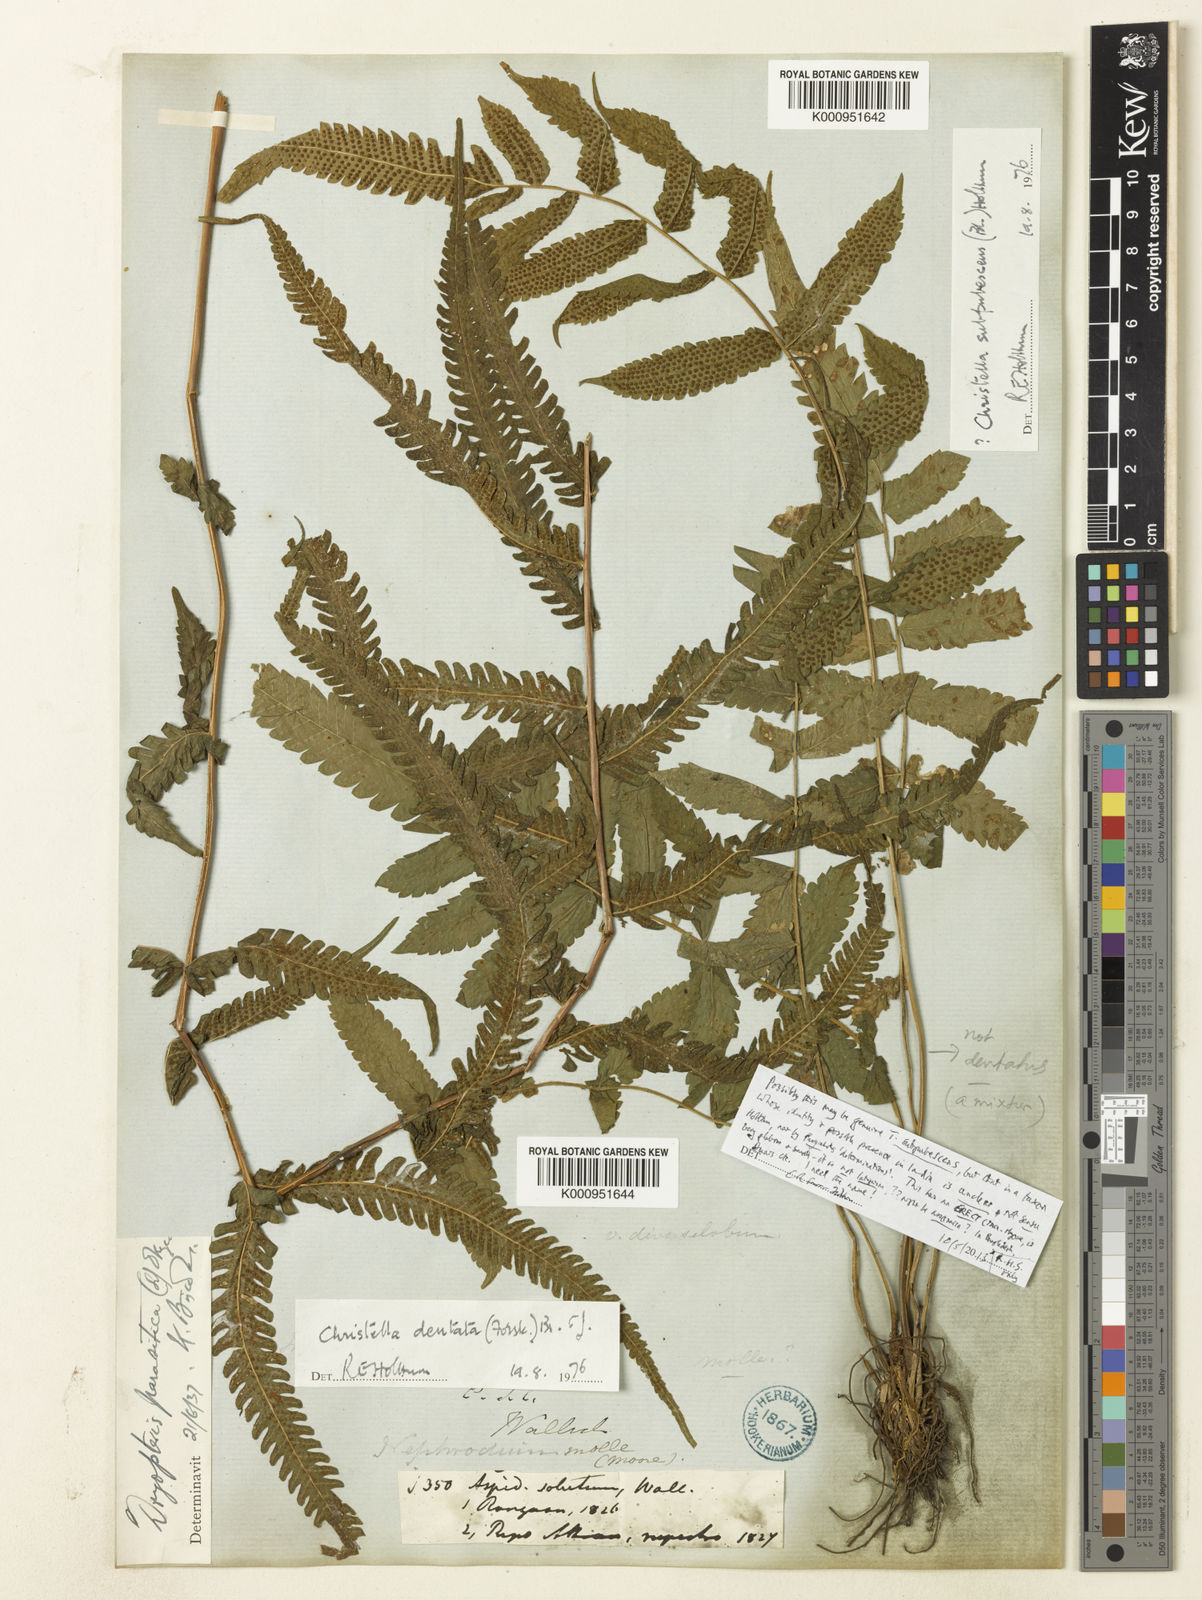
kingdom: Plantae
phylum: Tracheophyta
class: Polypodiopsida
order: Polypodiales
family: Thelypteridaceae
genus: Christella
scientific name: Christella dentata
